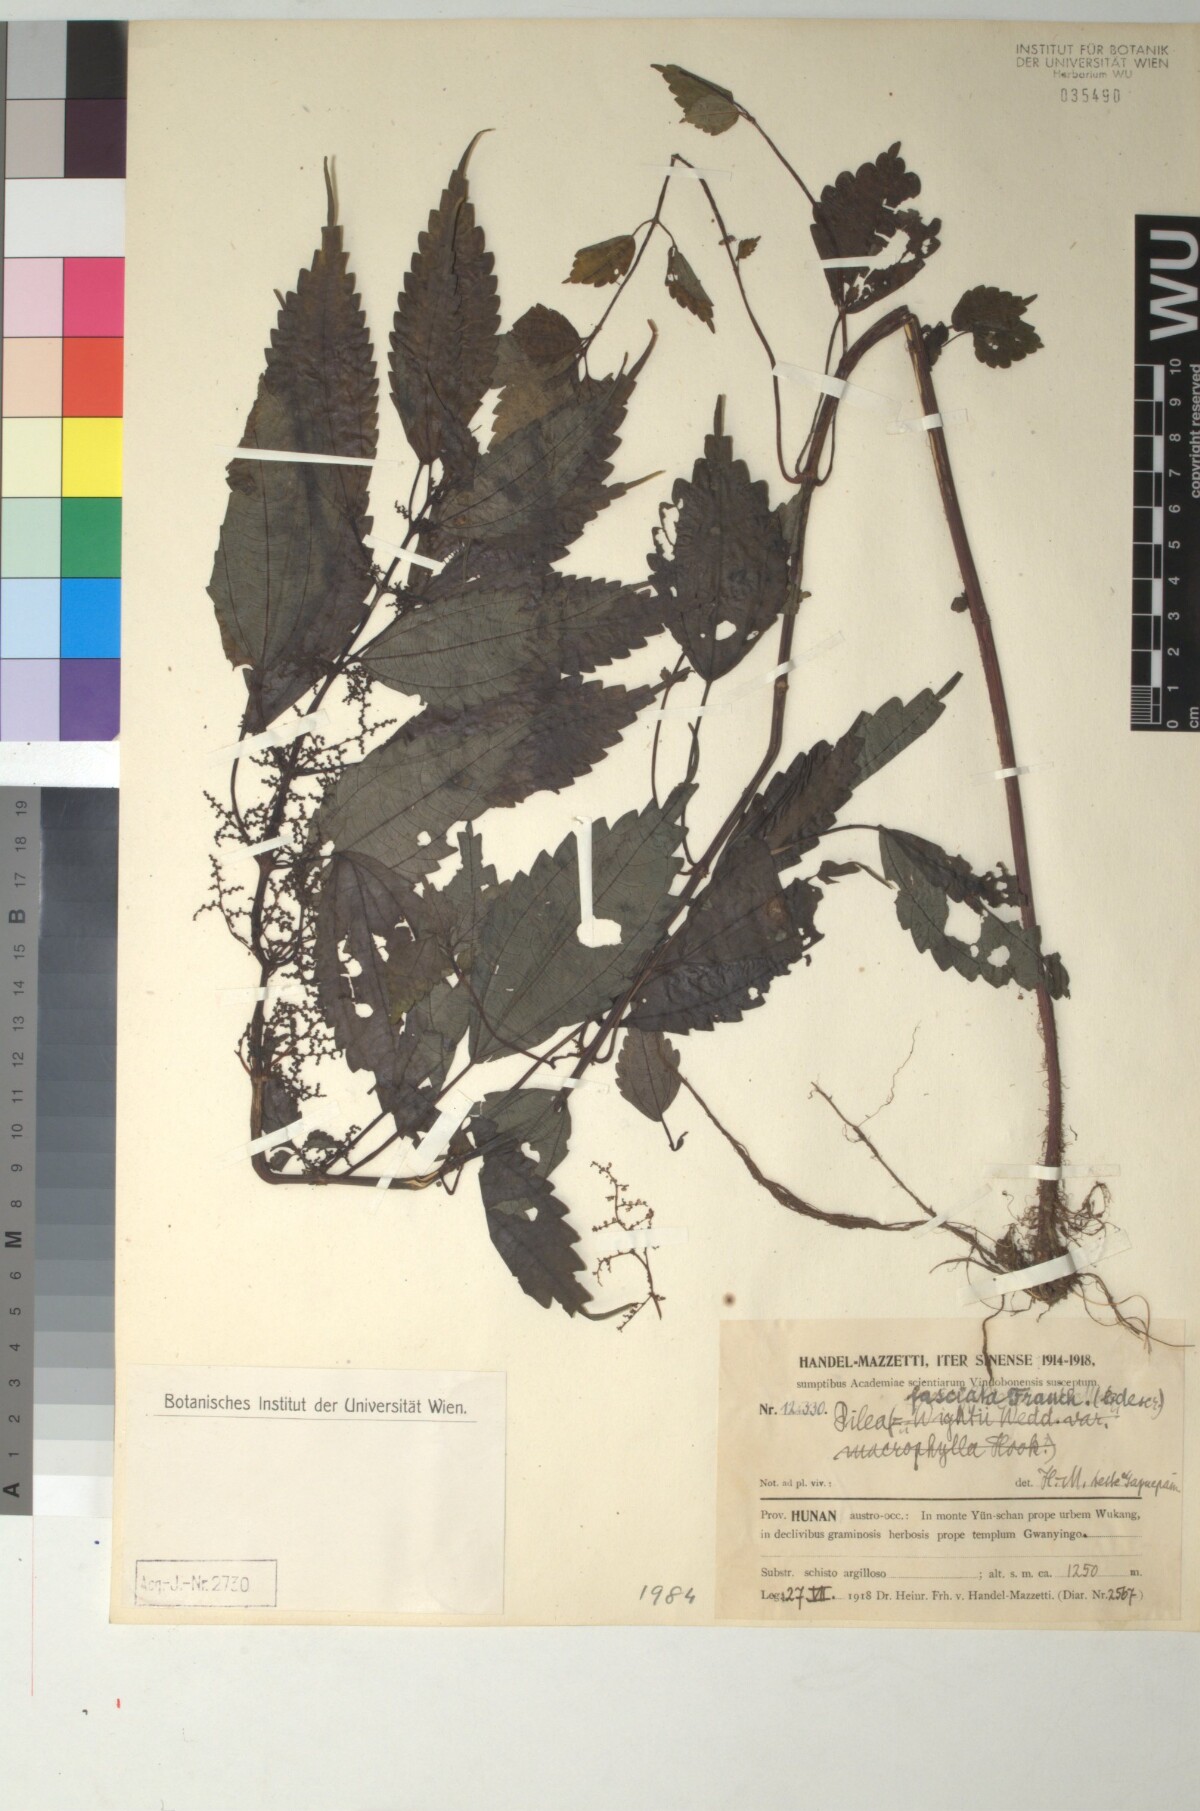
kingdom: Plantae
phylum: Tracheophyta
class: Magnoliopsida
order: Rosales
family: Urticaceae
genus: Pilea
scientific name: Pilea sinofasciata
